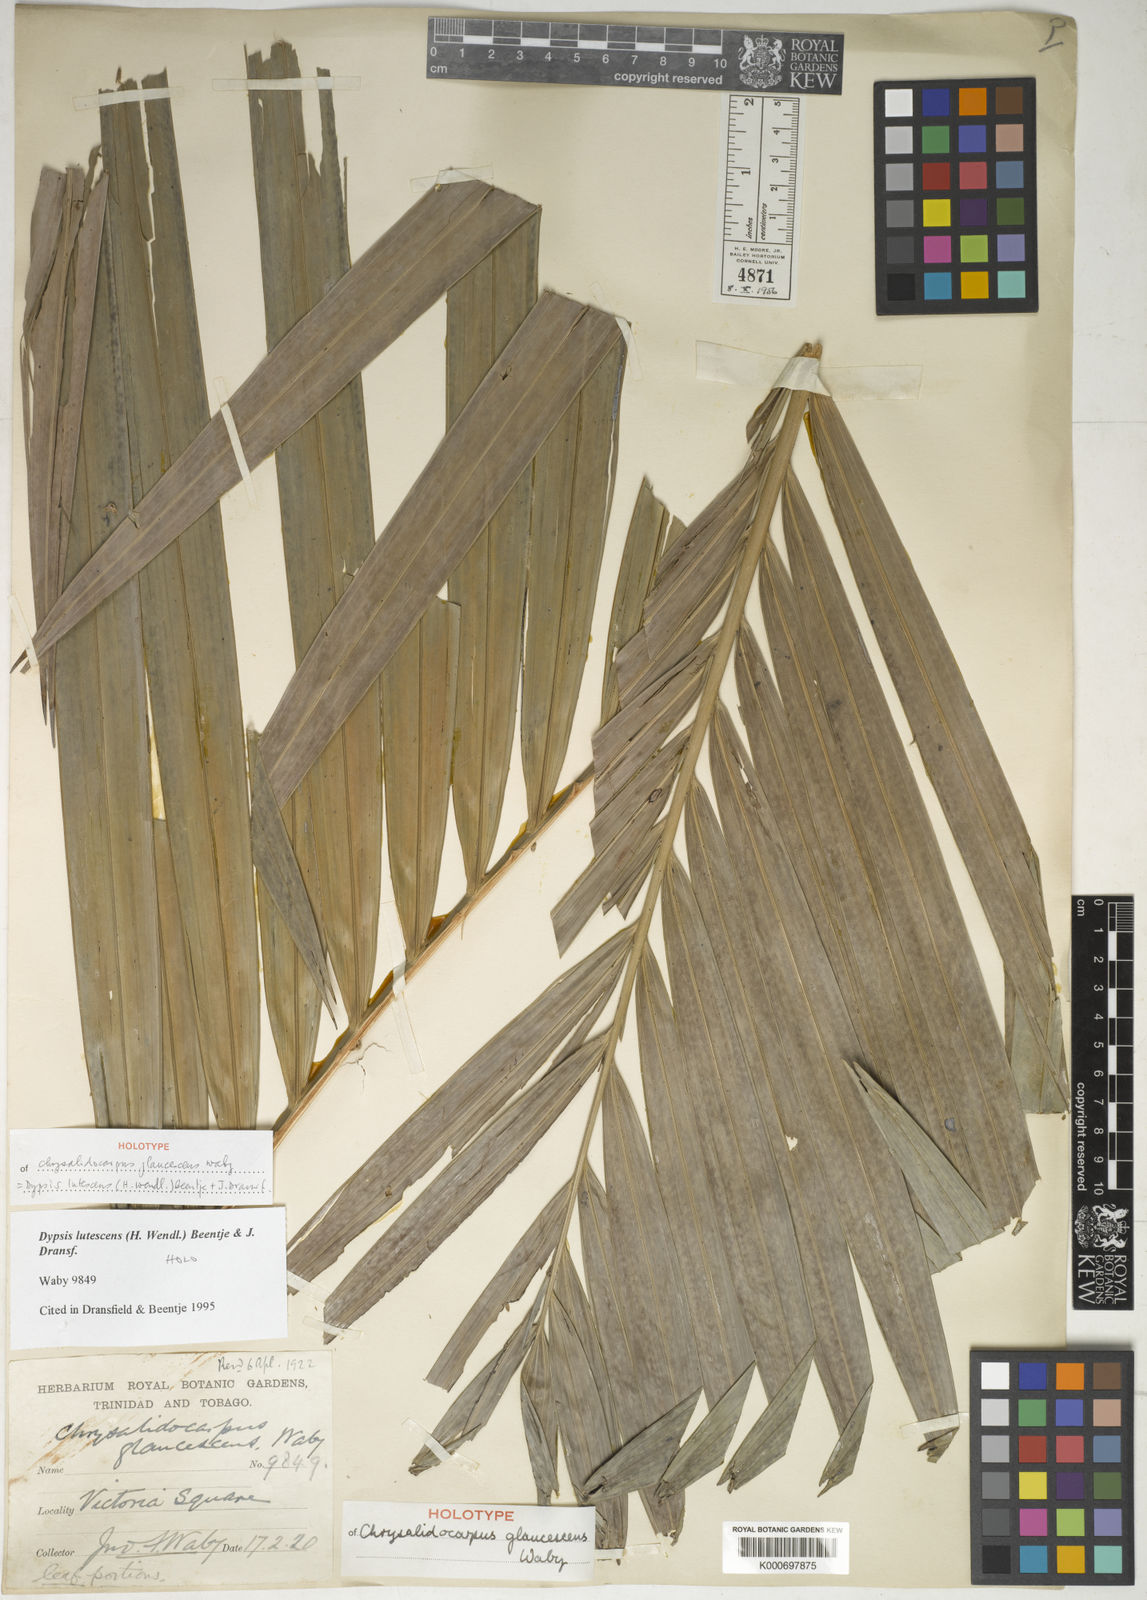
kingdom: Plantae
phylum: Tracheophyta
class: Liliopsida
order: Arecales
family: Arecaceae
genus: Dypsis
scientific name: Dypsis lutescens
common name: Yellow butterfly palm
